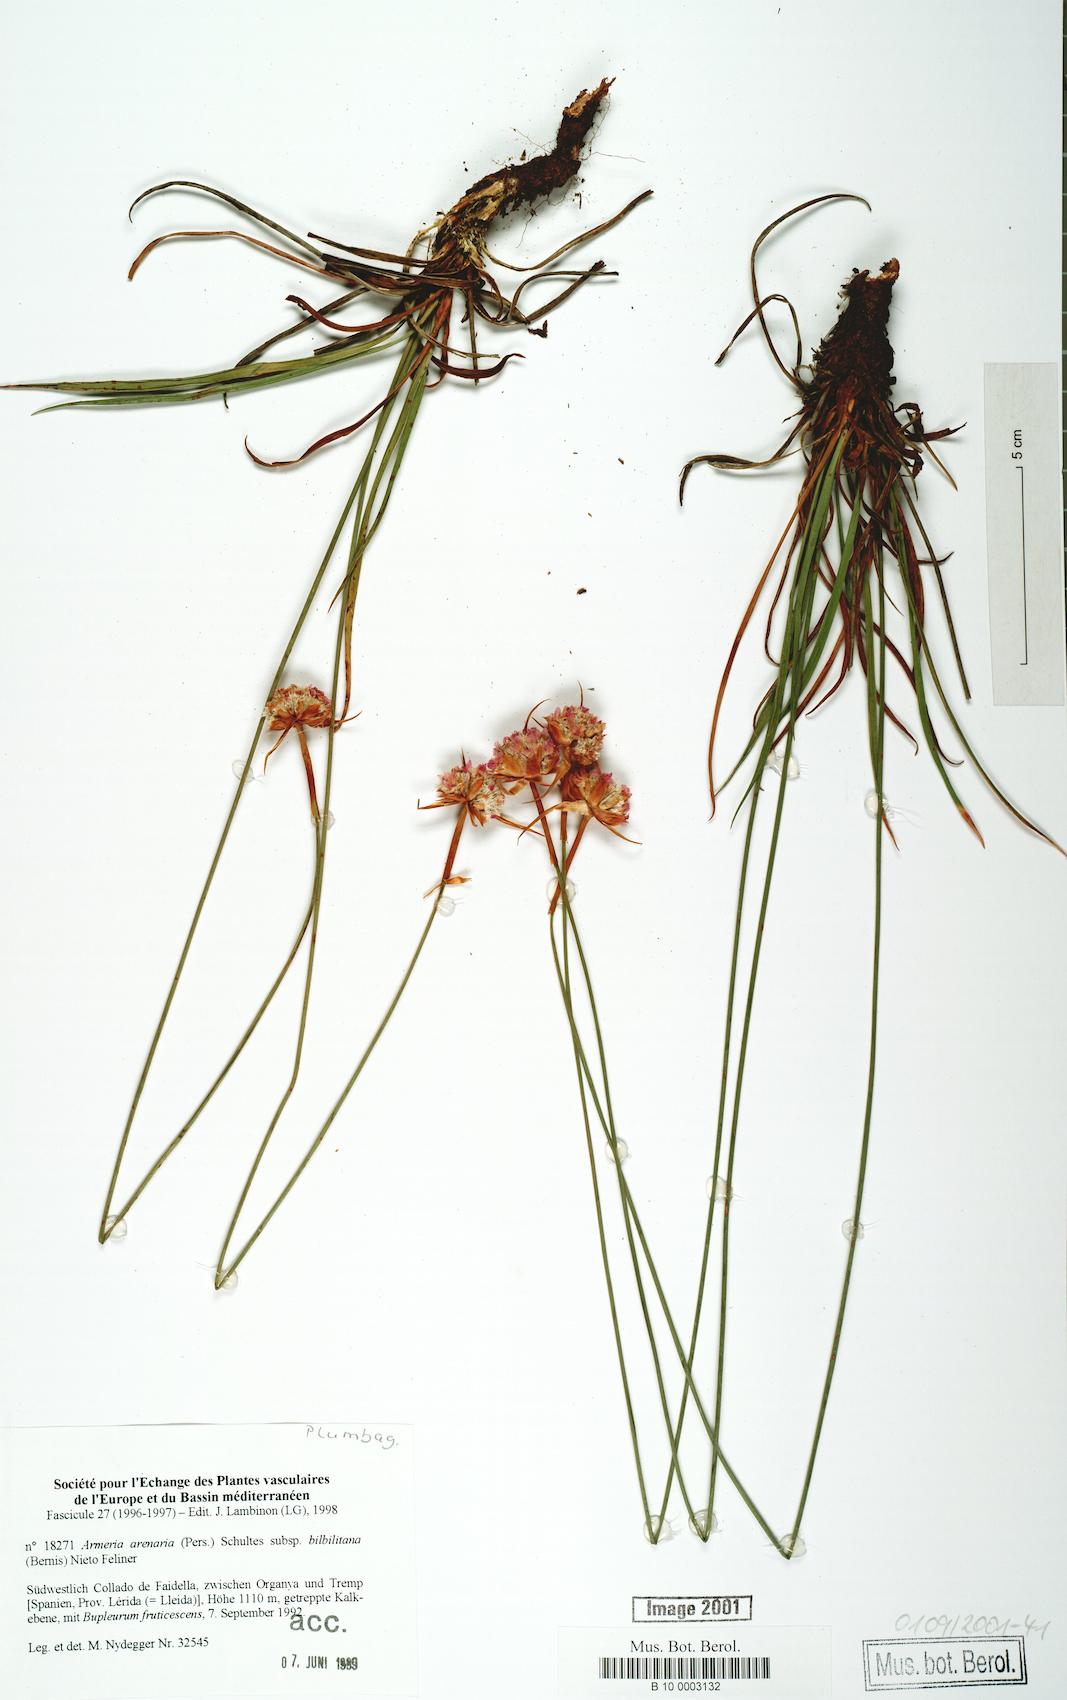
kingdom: Plantae
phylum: Tracheophyta
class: Magnoliopsida
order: Caryophyllales
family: Plumbaginaceae
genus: Armeria
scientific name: Armeria arenaria
